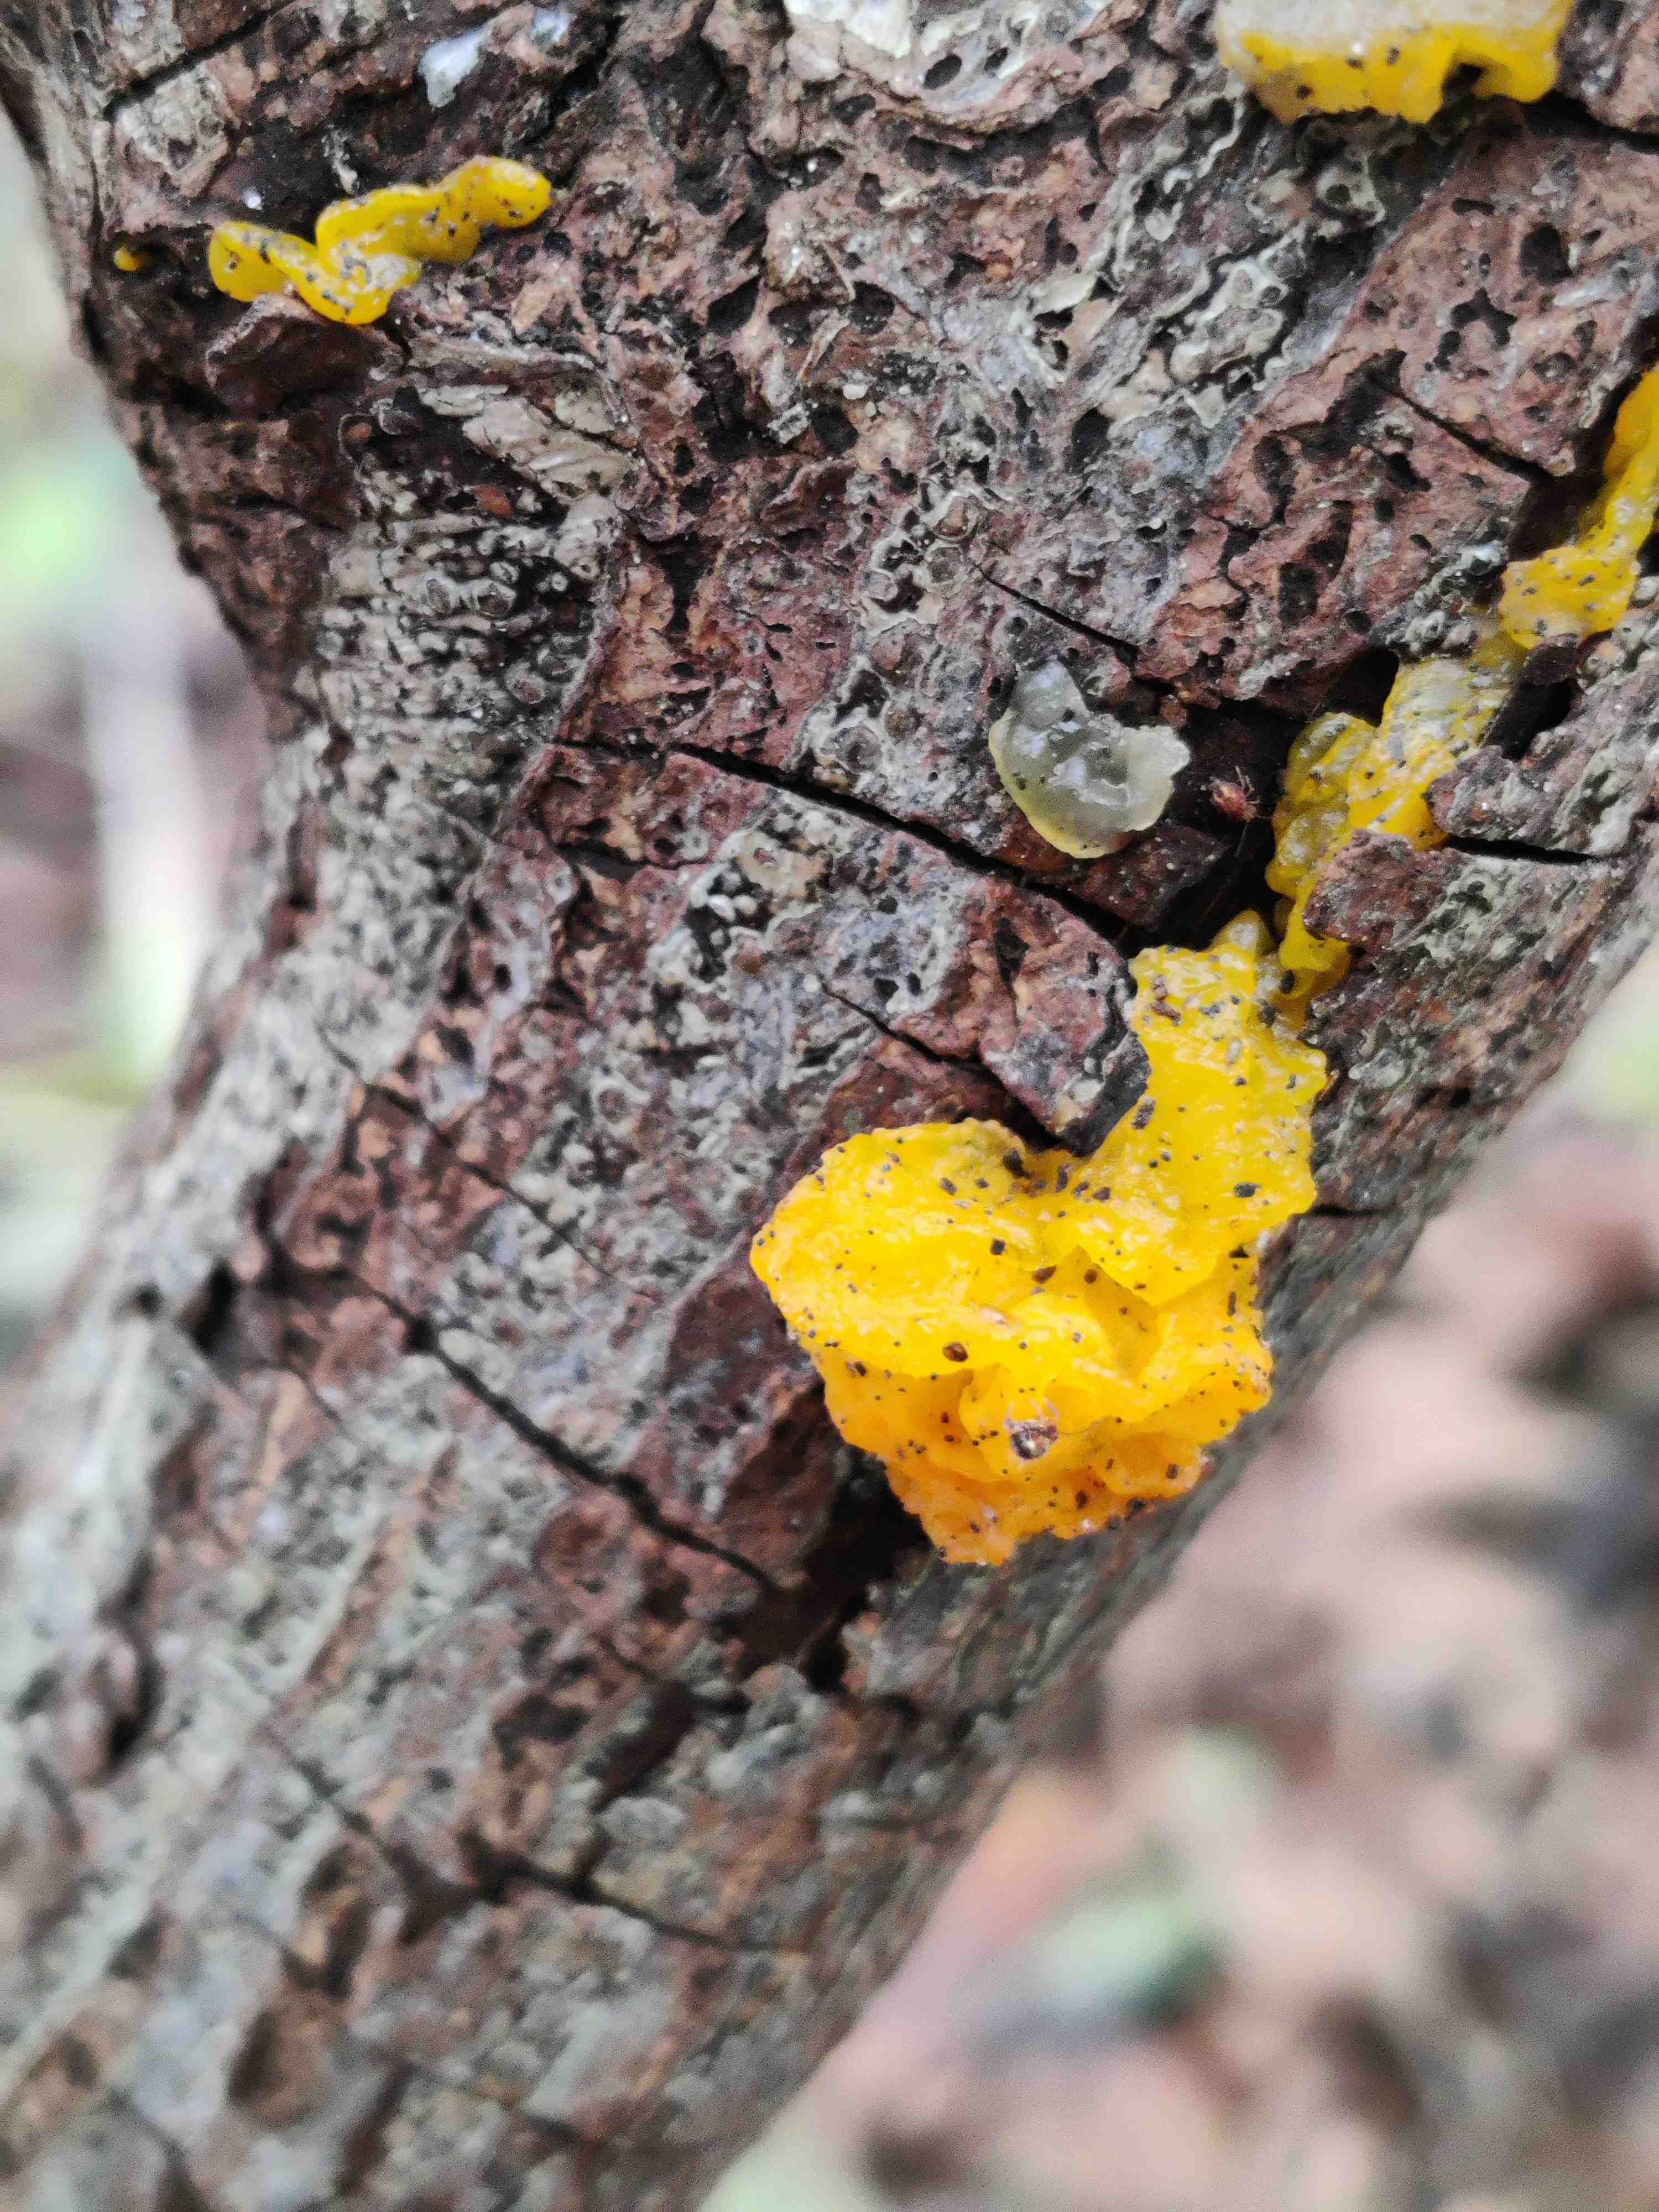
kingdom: Fungi
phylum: Basidiomycota
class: Tremellomycetes
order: Tremellales
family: Tremellaceae
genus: Tremella
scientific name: Tremella mesenterica
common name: gul bævresvamp
